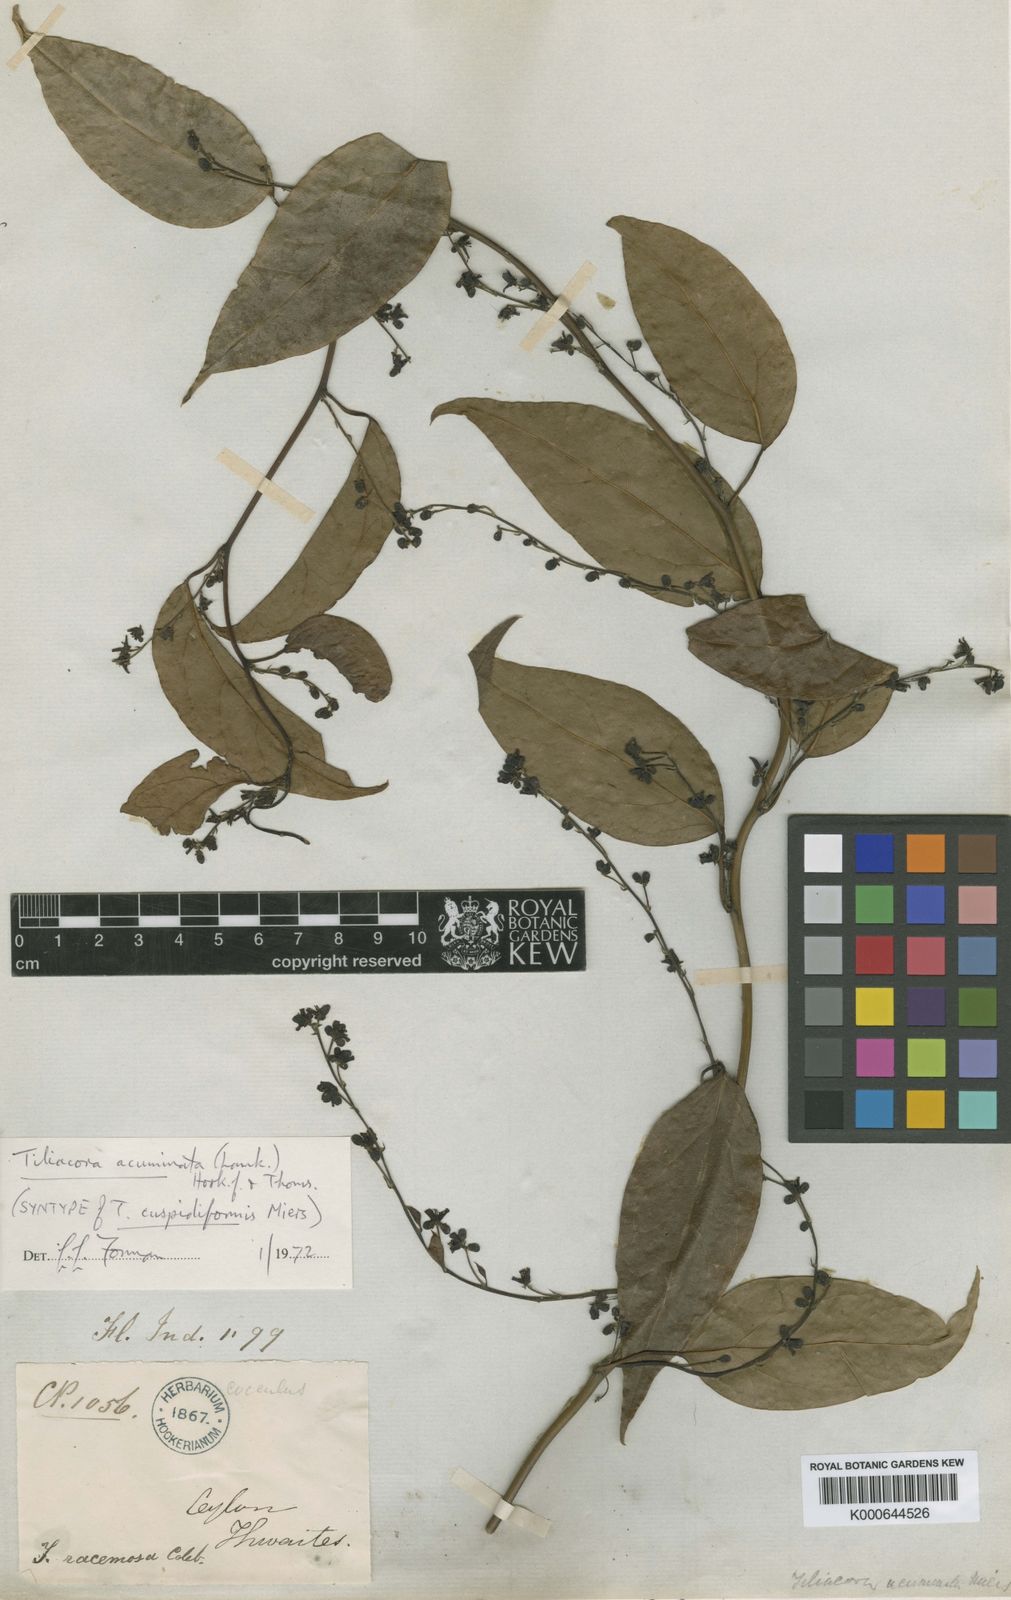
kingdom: Plantae
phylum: Tracheophyta
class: Magnoliopsida
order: Ranunculales
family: Menispermaceae
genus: Tiliacora
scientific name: Tiliacora
